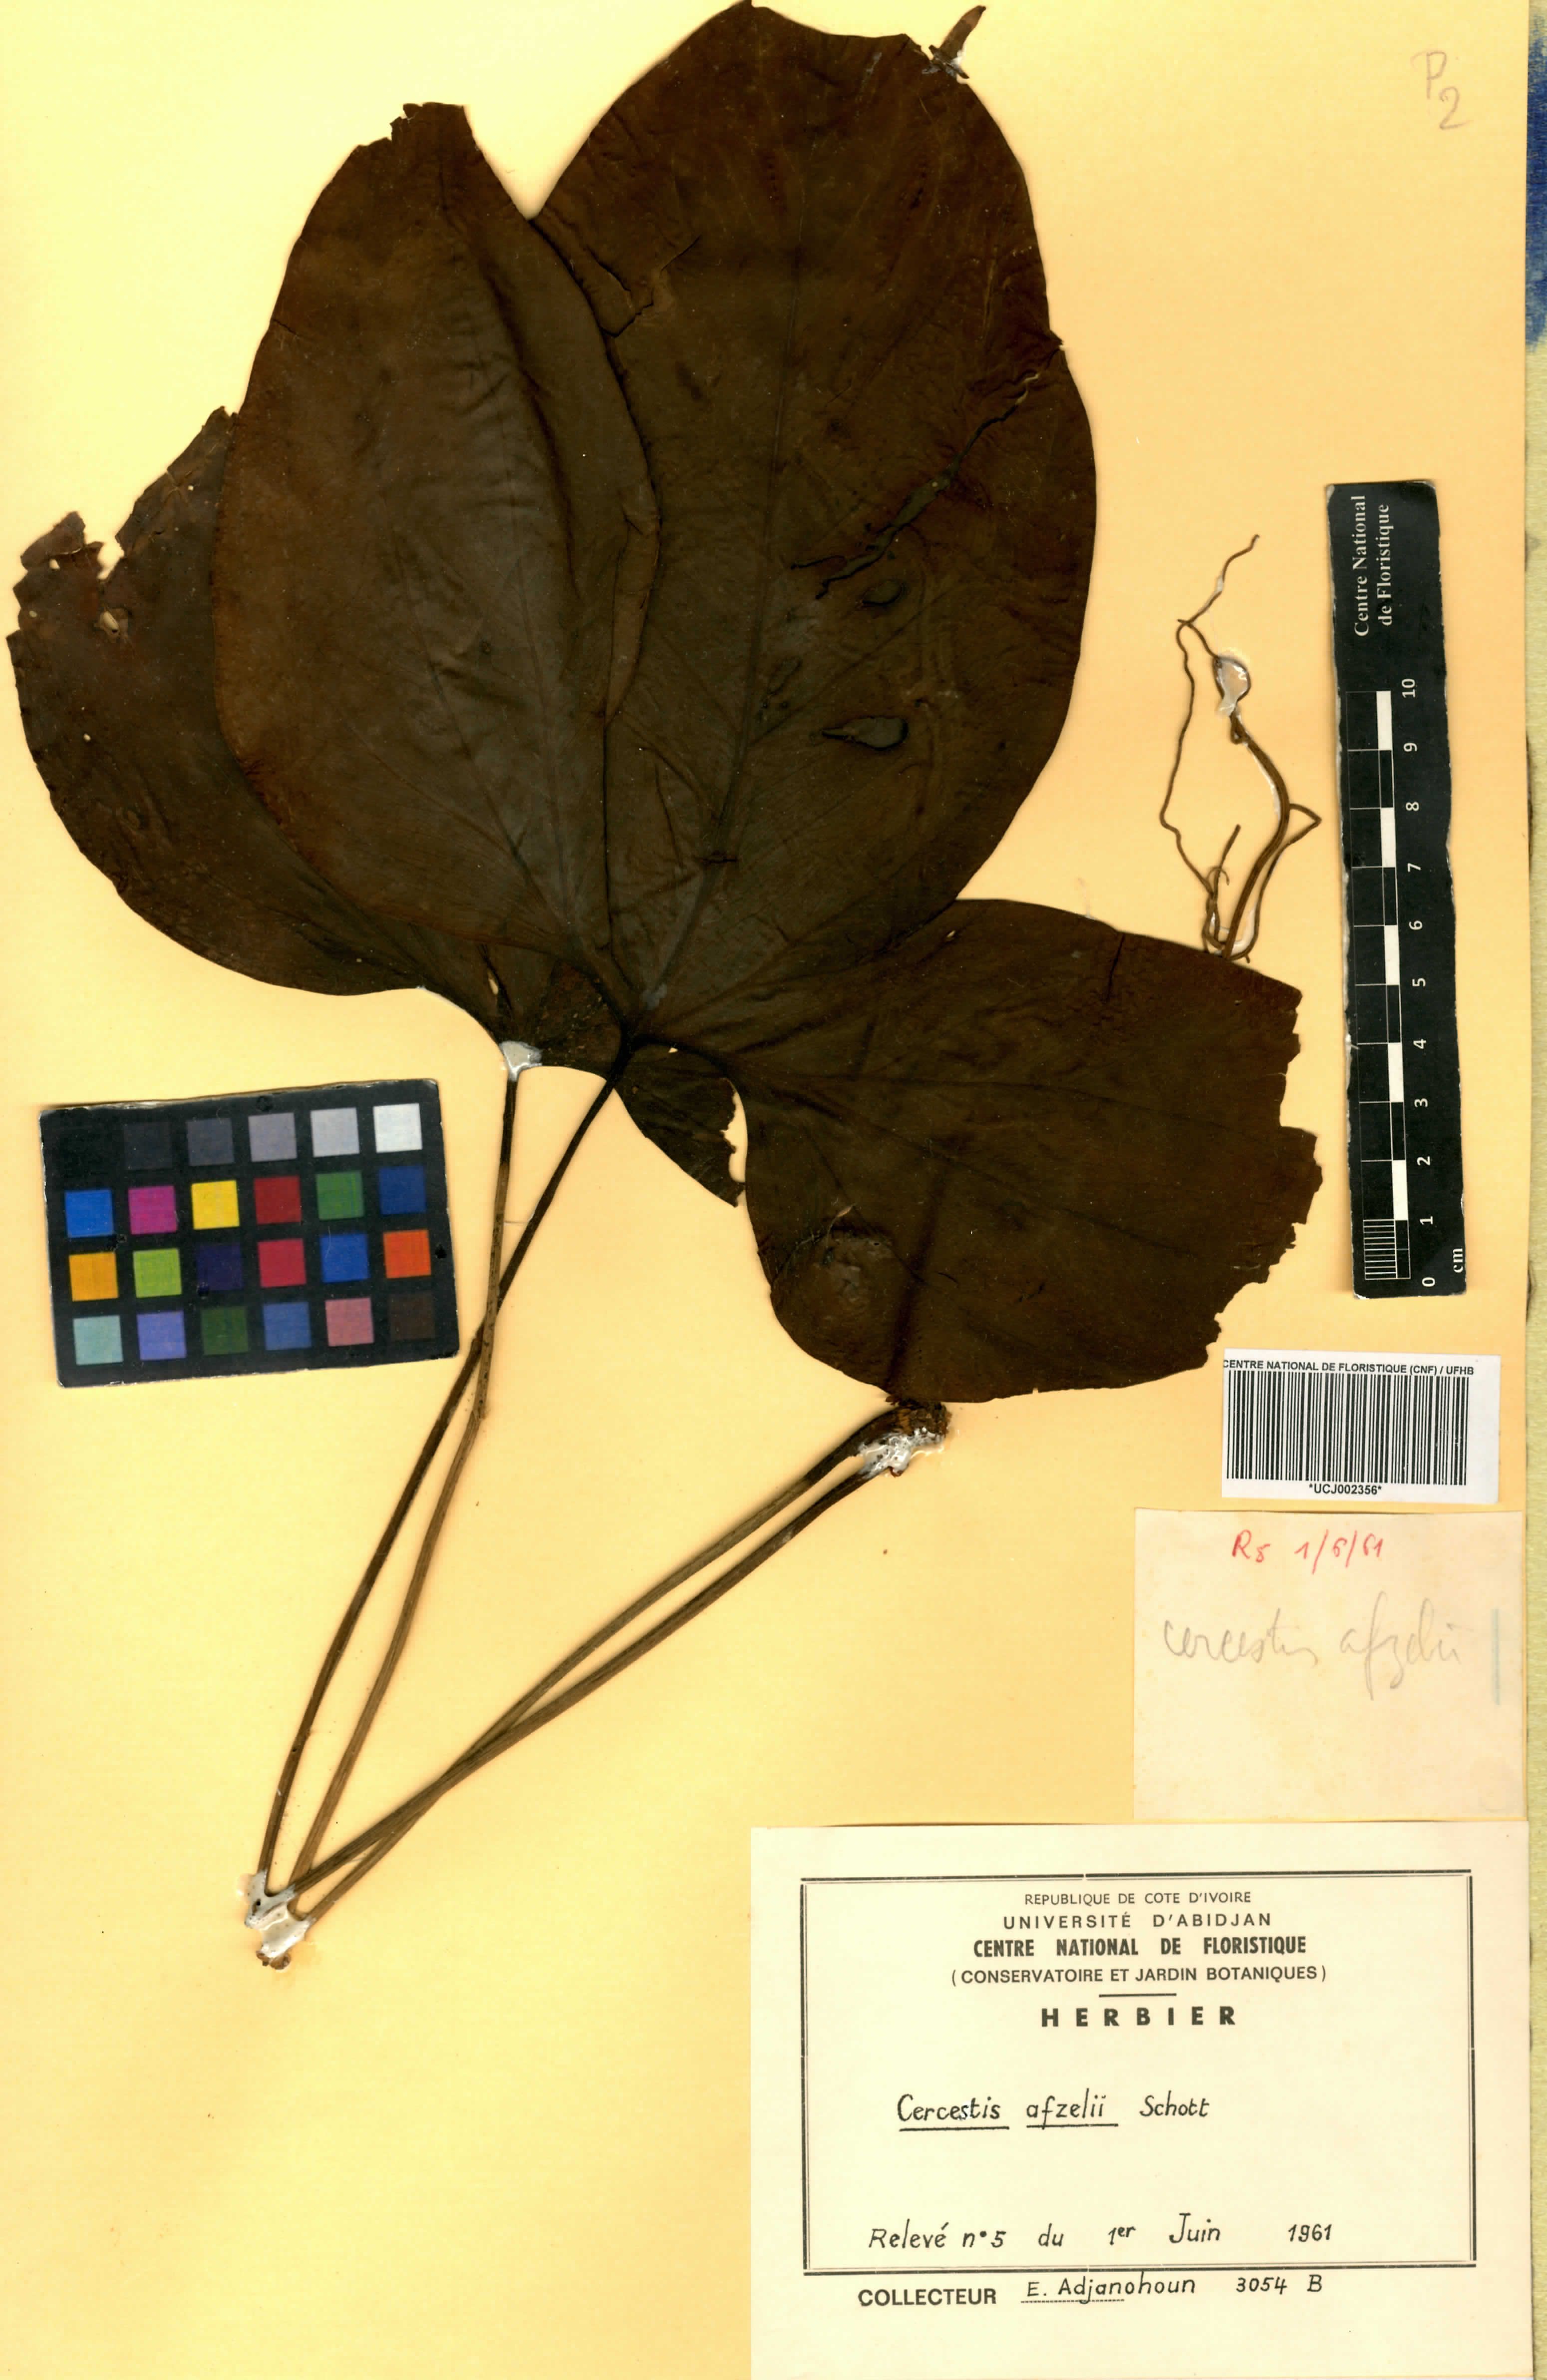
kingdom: Plantae
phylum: Tracheophyta
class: Liliopsida
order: Alismatales
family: Araceae
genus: Cercestis
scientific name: Cercestis afzelii
